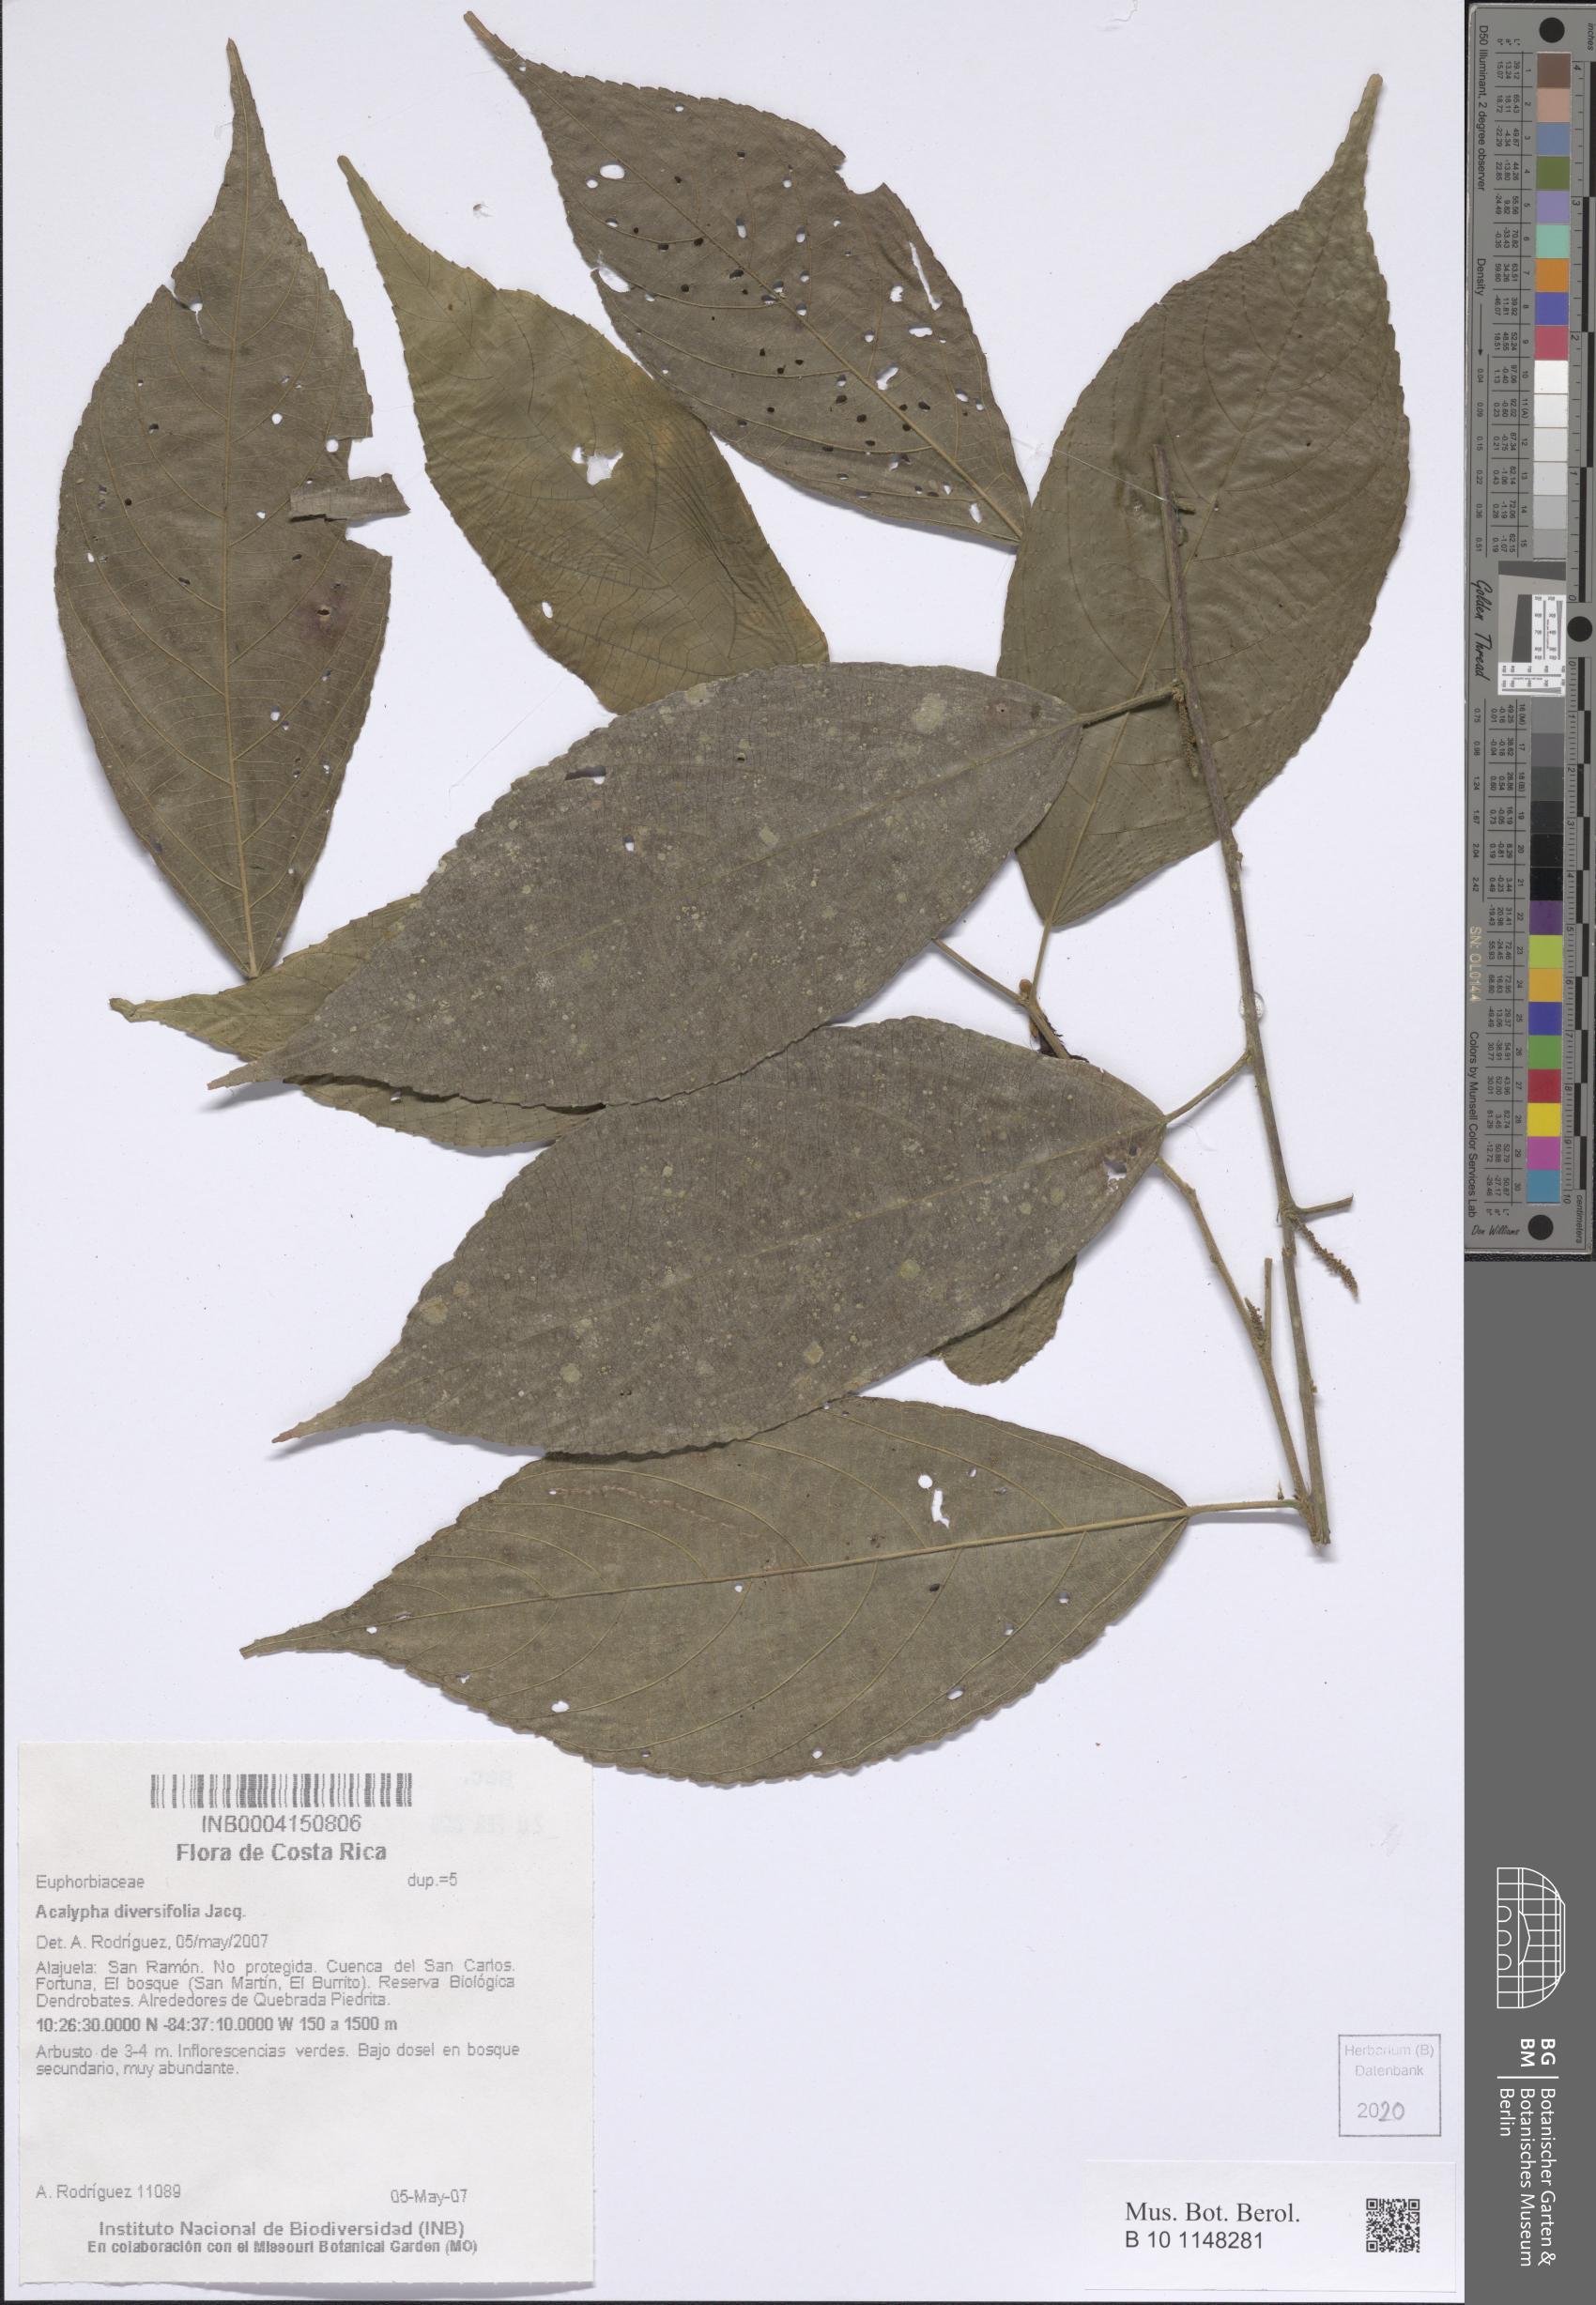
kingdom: Plantae
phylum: Tracheophyta
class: Magnoliopsida
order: Malpighiales
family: Euphorbiaceae
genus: Acalypha
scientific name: Acalypha diversifolia
